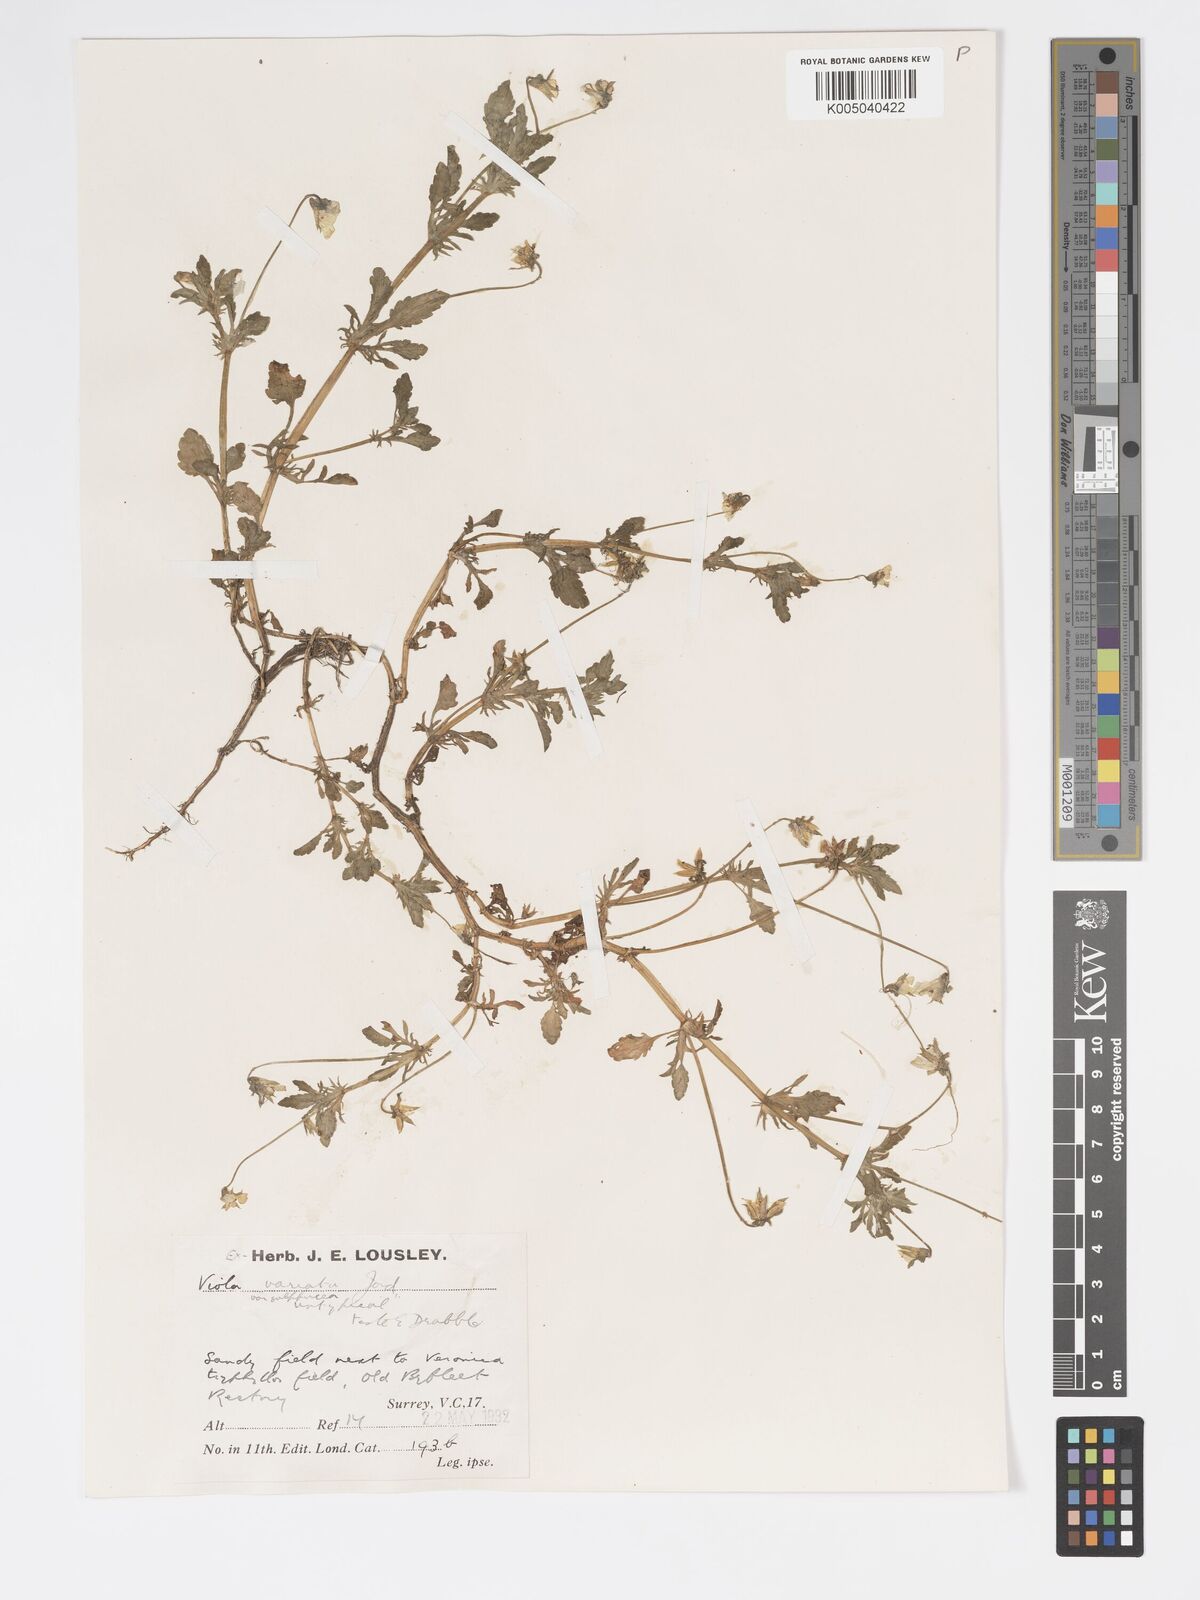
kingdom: Plantae
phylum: Tracheophyta
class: Magnoliopsida
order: Malpighiales
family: Violaceae
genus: Viola
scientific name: Viola arvensis
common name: Field pansy
